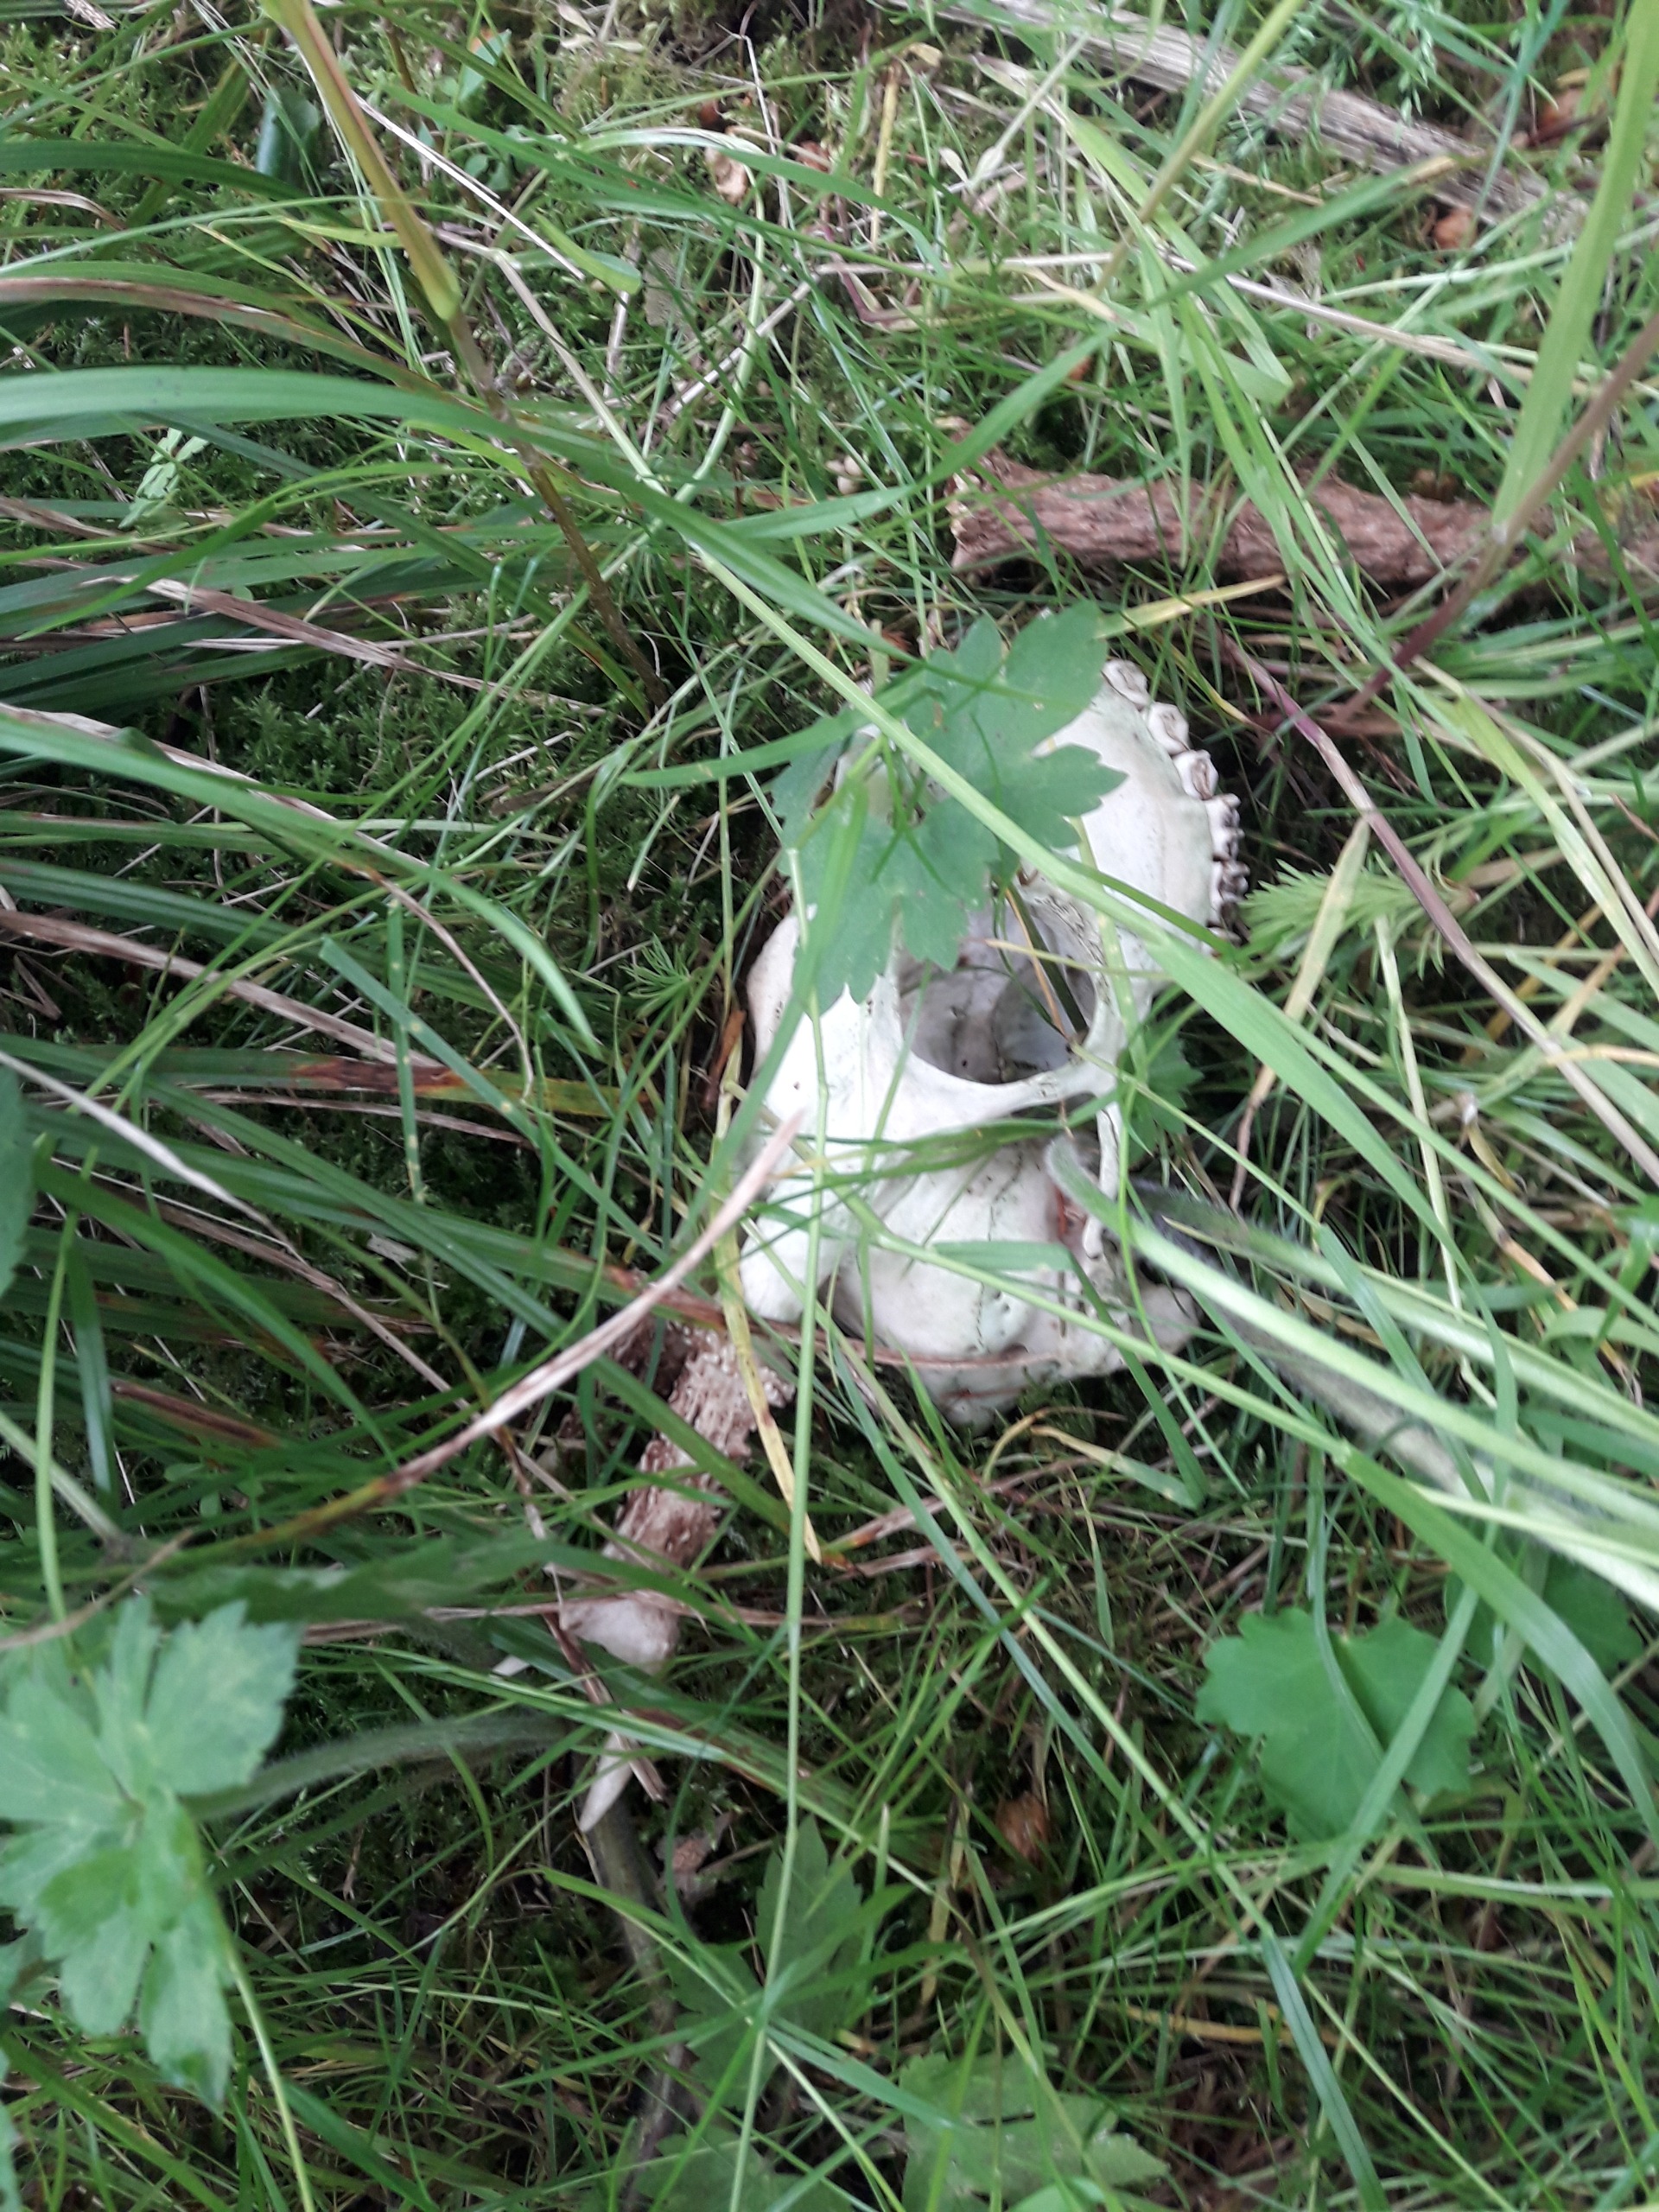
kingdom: Animalia
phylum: Chordata
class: Mammalia
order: Artiodactyla
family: Cervidae
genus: Capreolus
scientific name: Capreolus capreolus
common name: Rådyr
